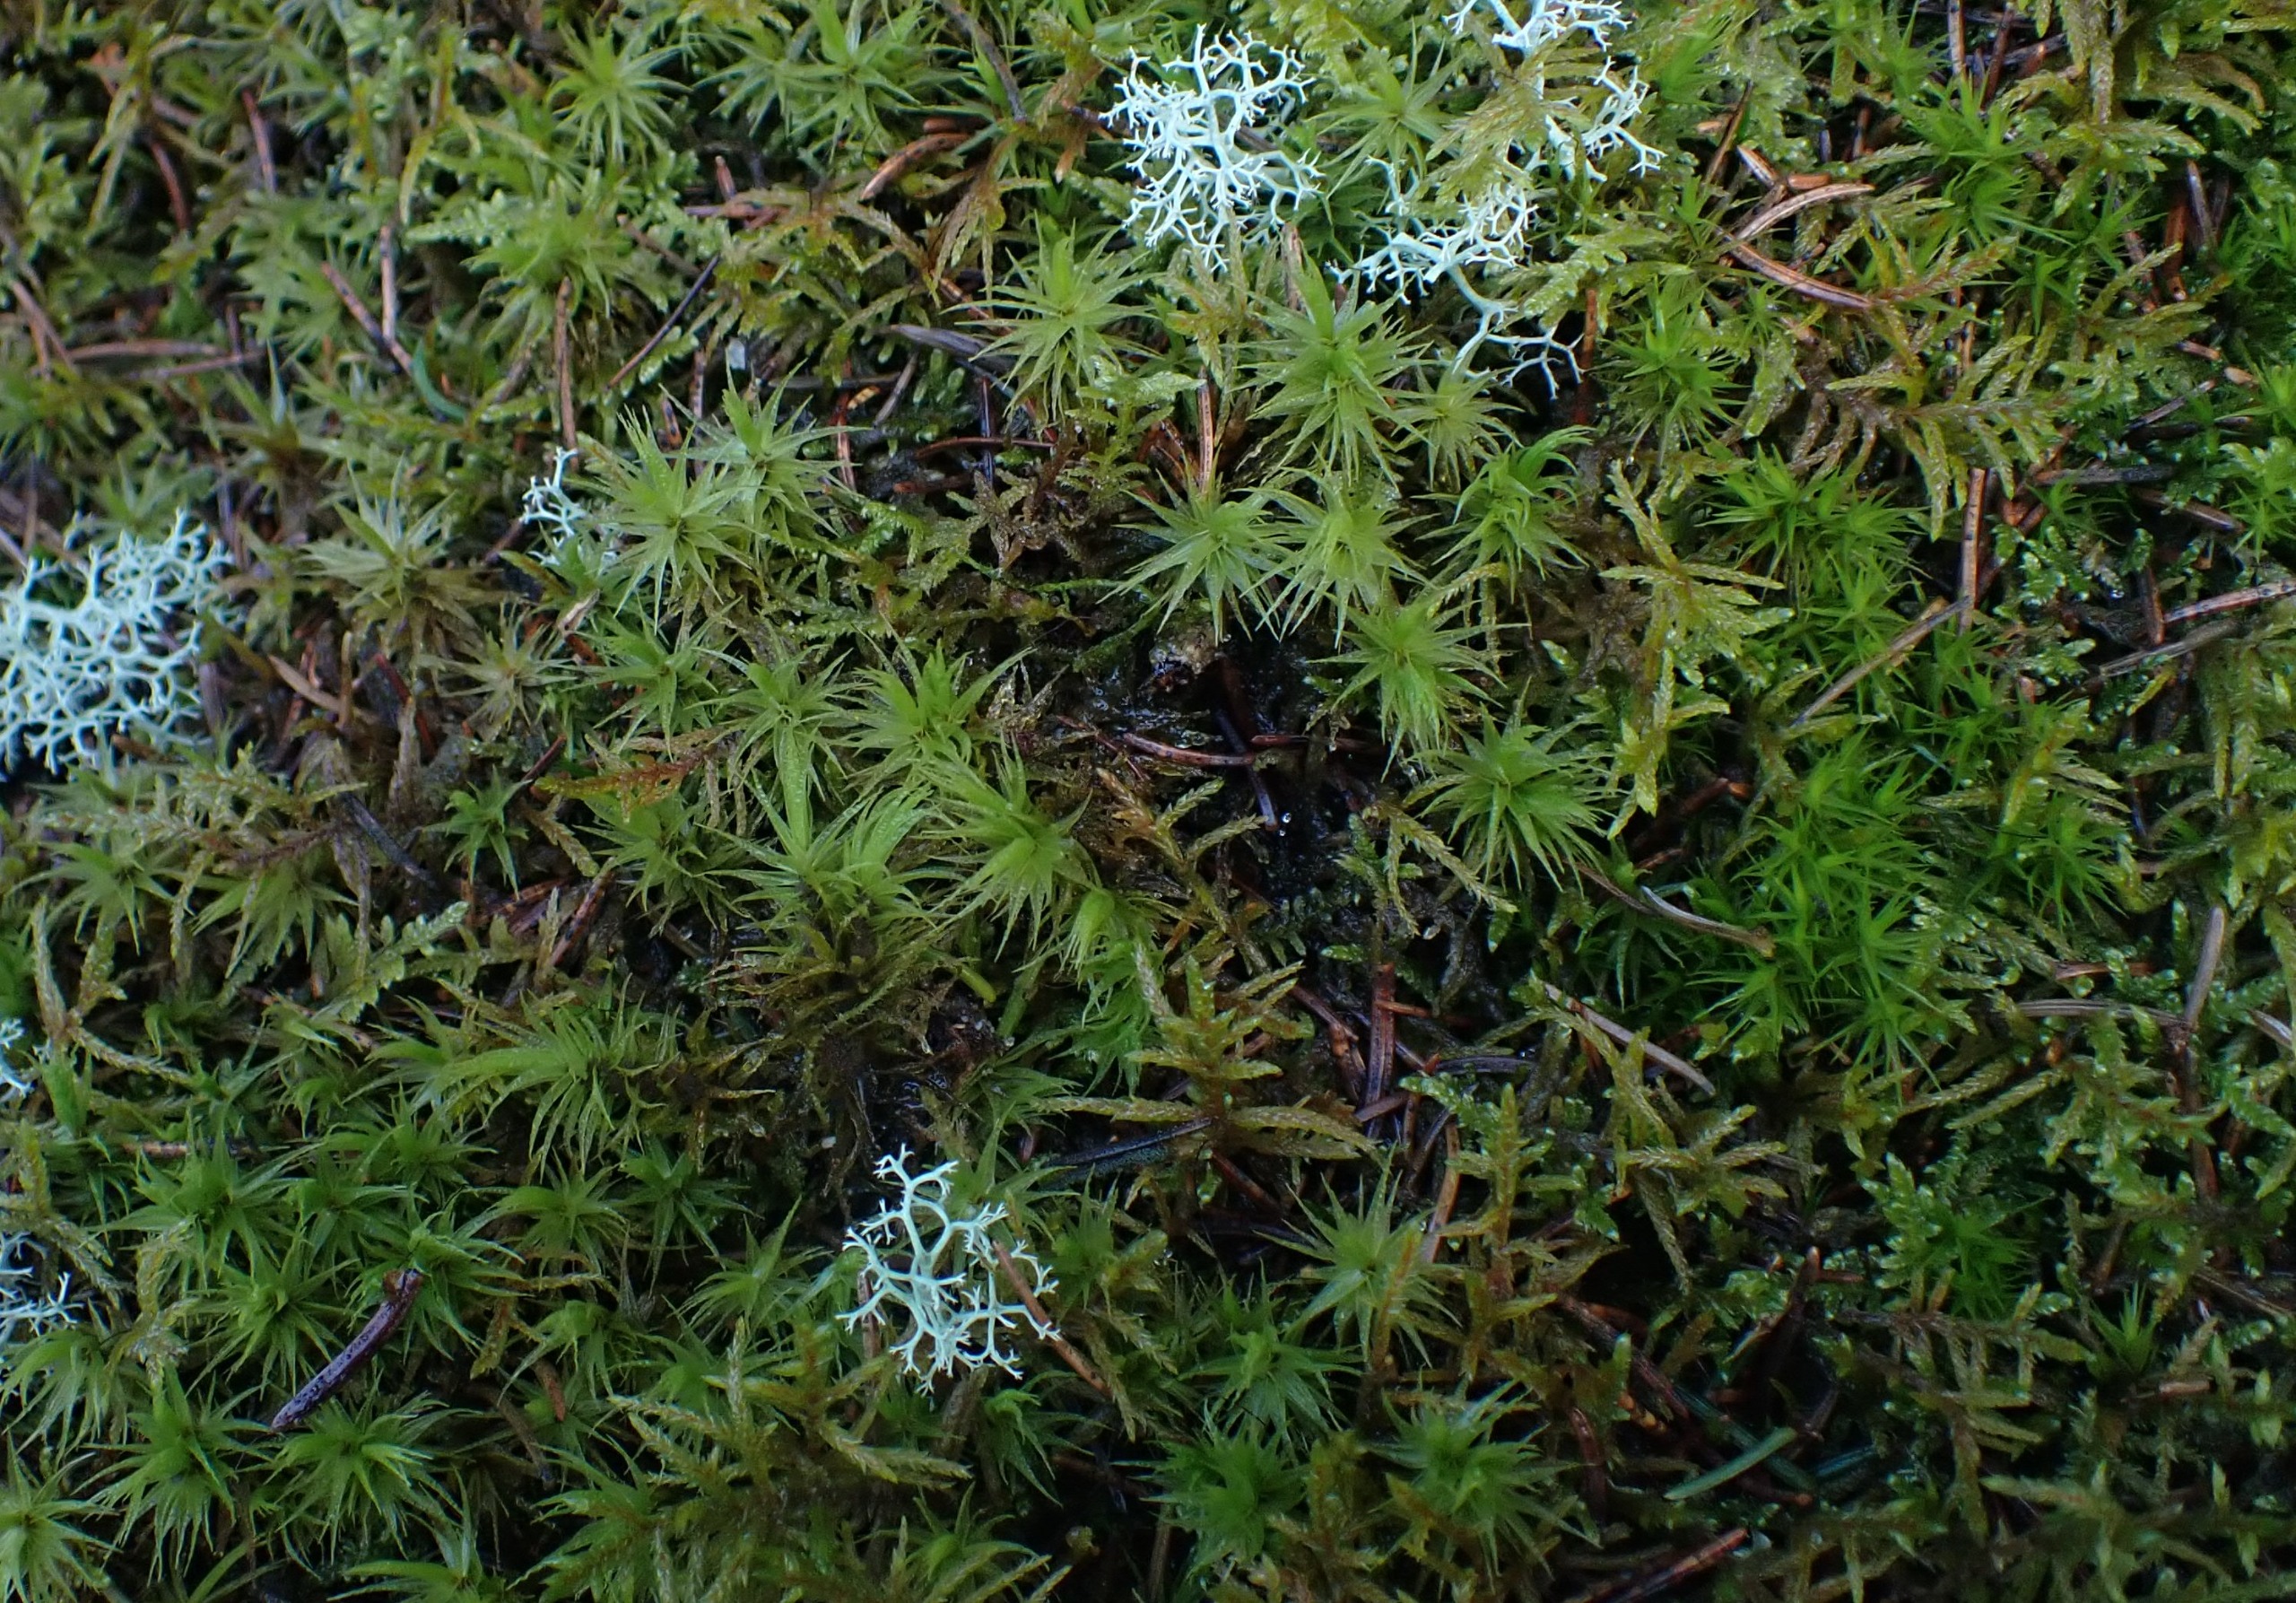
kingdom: Plantae
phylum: Bryophyta
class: Bryopsida
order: Dicranales
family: Dicranaceae
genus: Dicranum
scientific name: Dicranum polysetum
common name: Bølgebladet kløvtand
